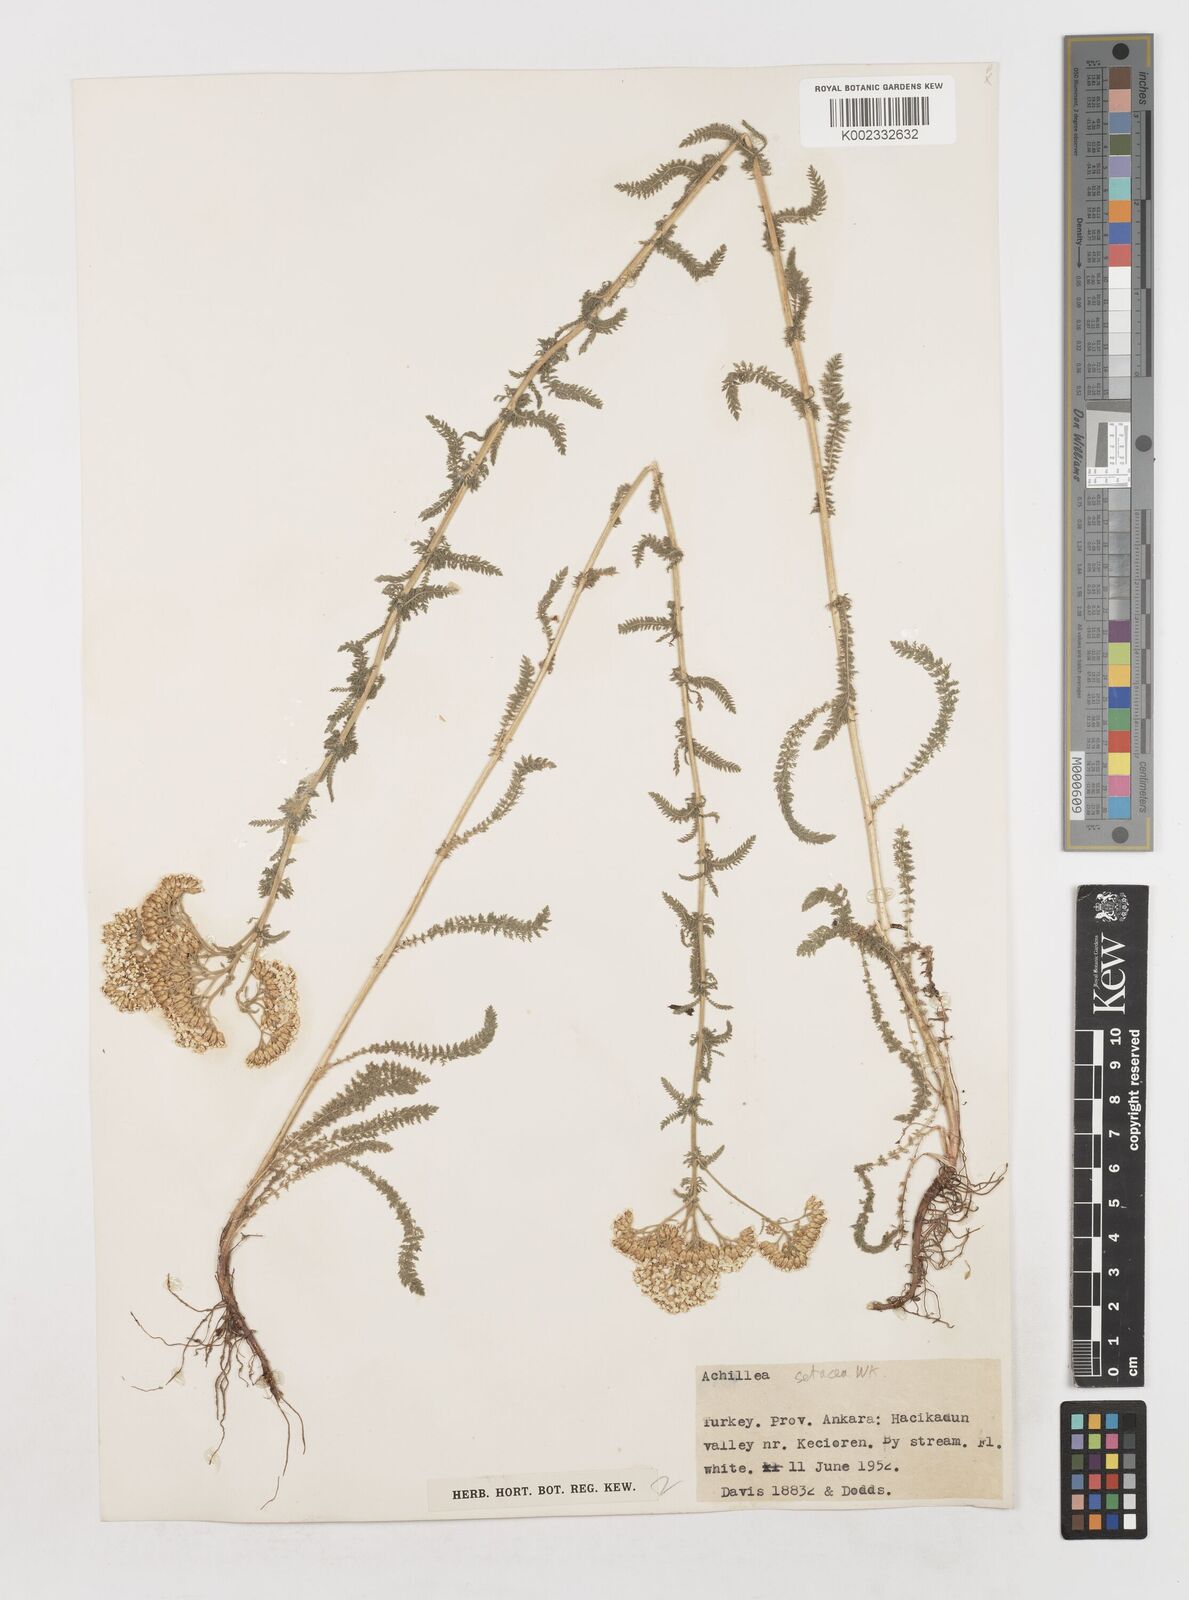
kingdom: Plantae
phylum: Tracheophyta
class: Magnoliopsida
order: Asterales
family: Asteraceae
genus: Achillea
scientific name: Achillea setacea
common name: Bristly yarrow
